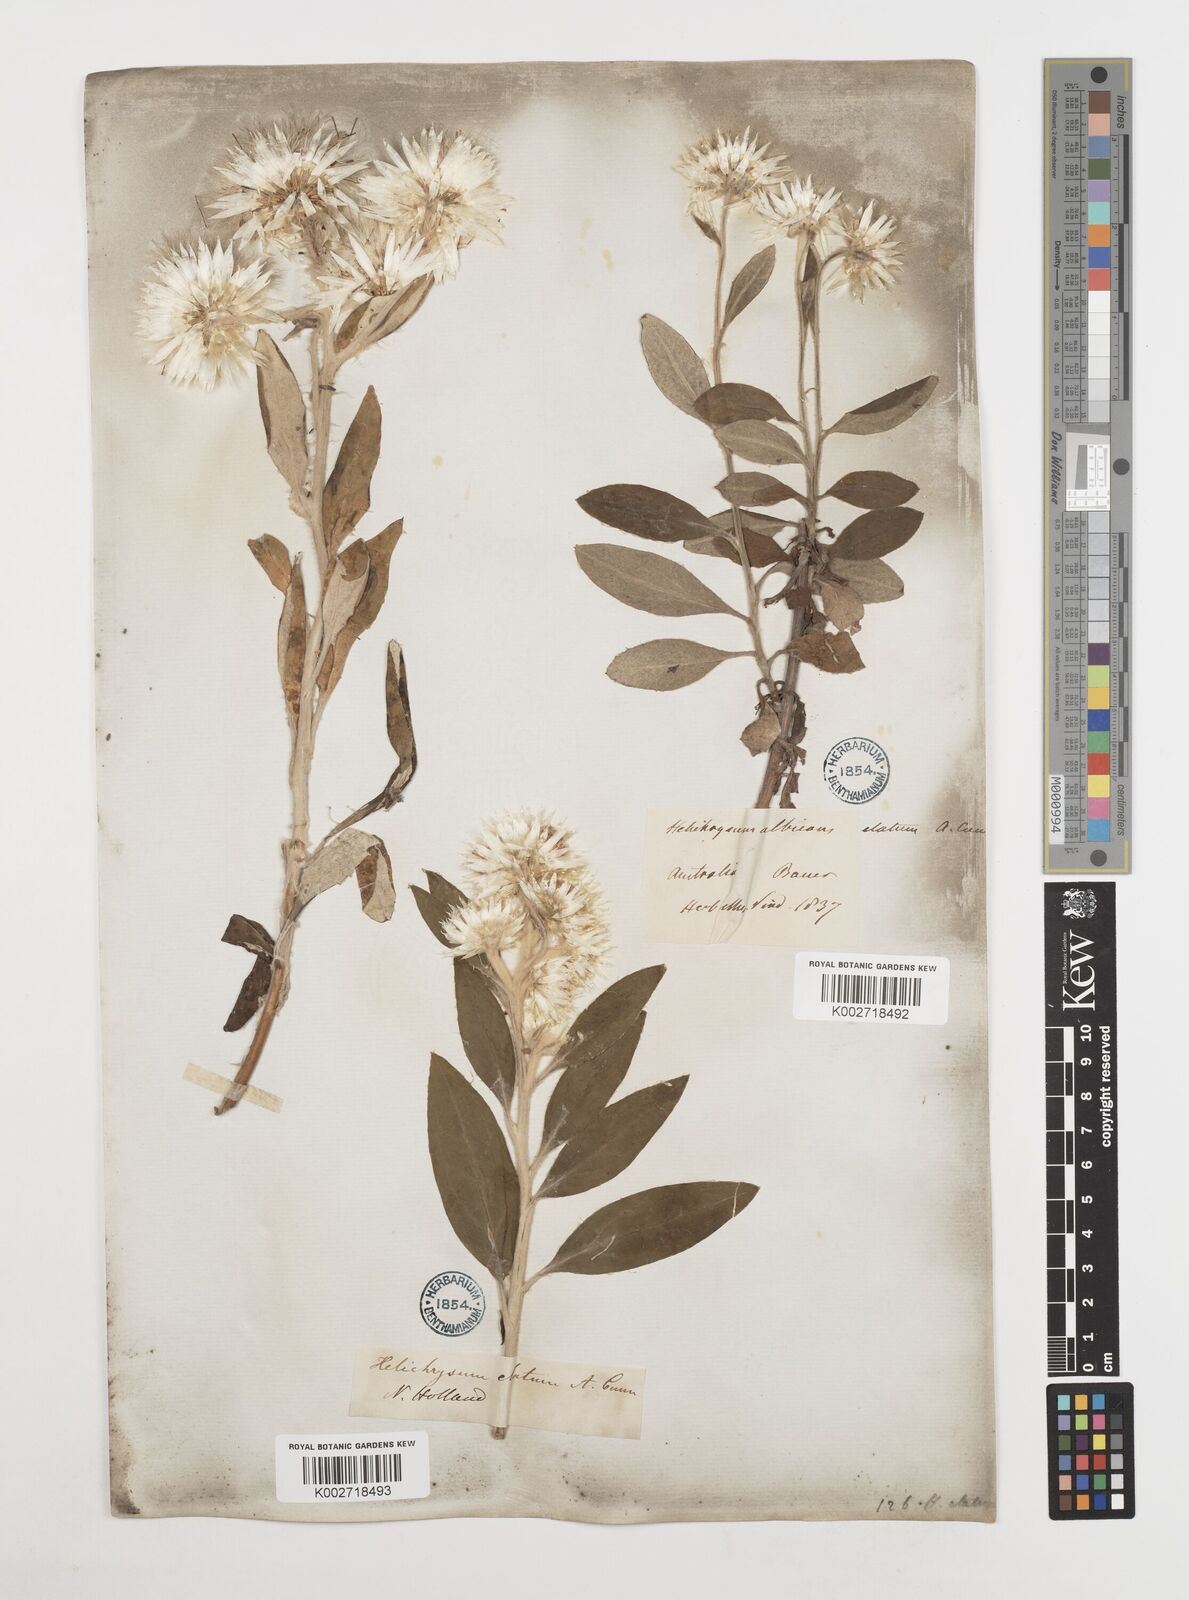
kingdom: Plantae
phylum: Tracheophyta
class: Magnoliopsida
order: Asterales
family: Asteraceae
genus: Leucozoma
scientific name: Leucozoma elatum
